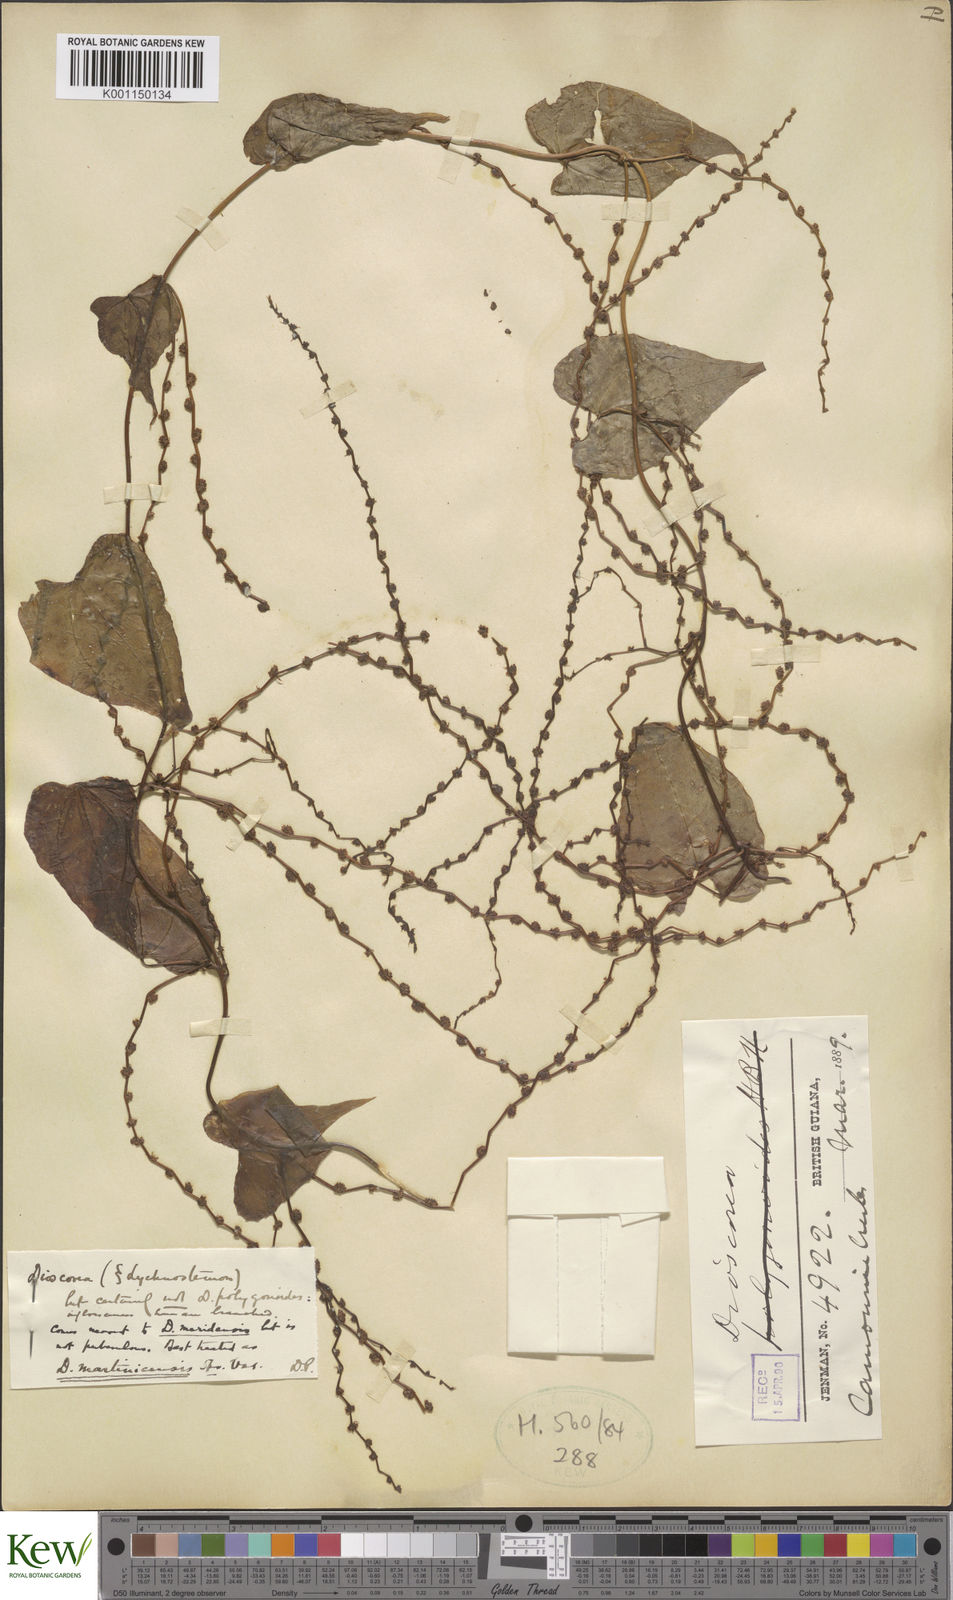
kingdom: Plantae
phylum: Tracheophyta
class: Liliopsida
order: Dioscoreales
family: Dioscoreaceae
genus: Dioscorea
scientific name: Dioscorea polygonoides
